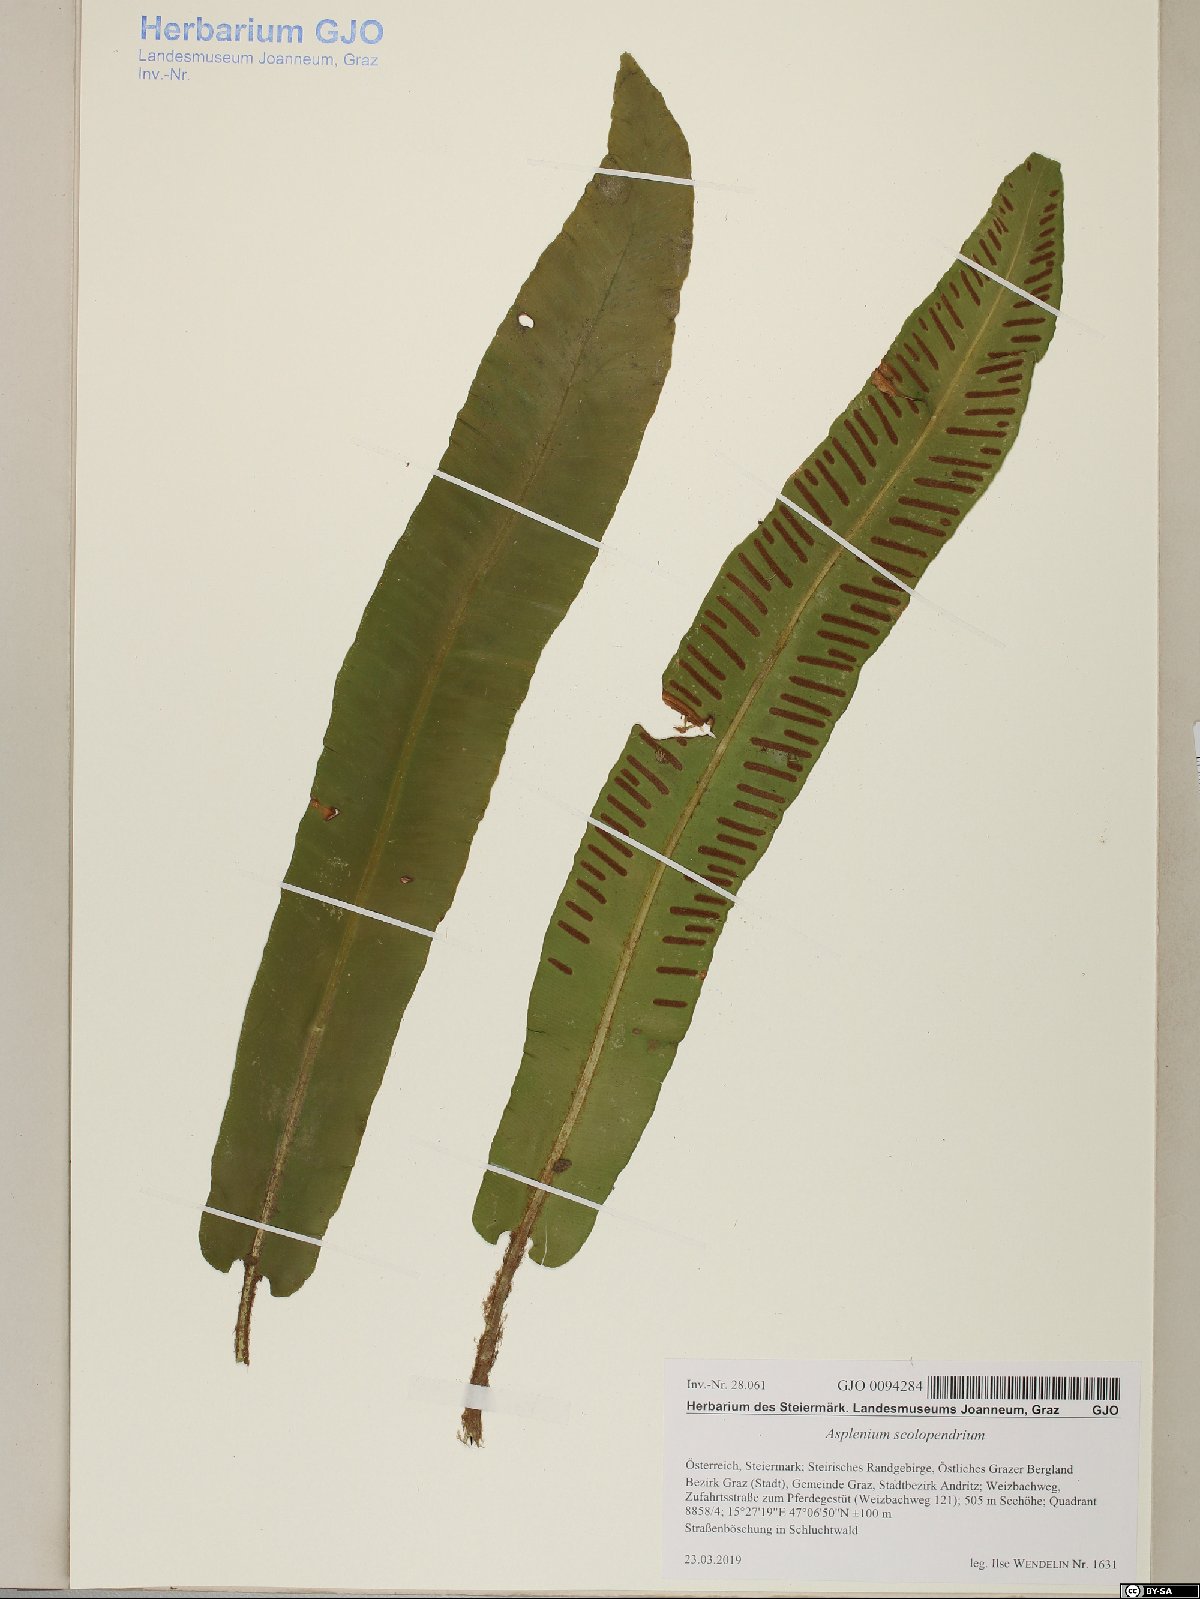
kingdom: Plantae
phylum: Tracheophyta
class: Polypodiopsida
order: Polypodiales
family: Aspleniaceae
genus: Asplenium
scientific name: Asplenium scolopendrium
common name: Hart's-tongue fern
